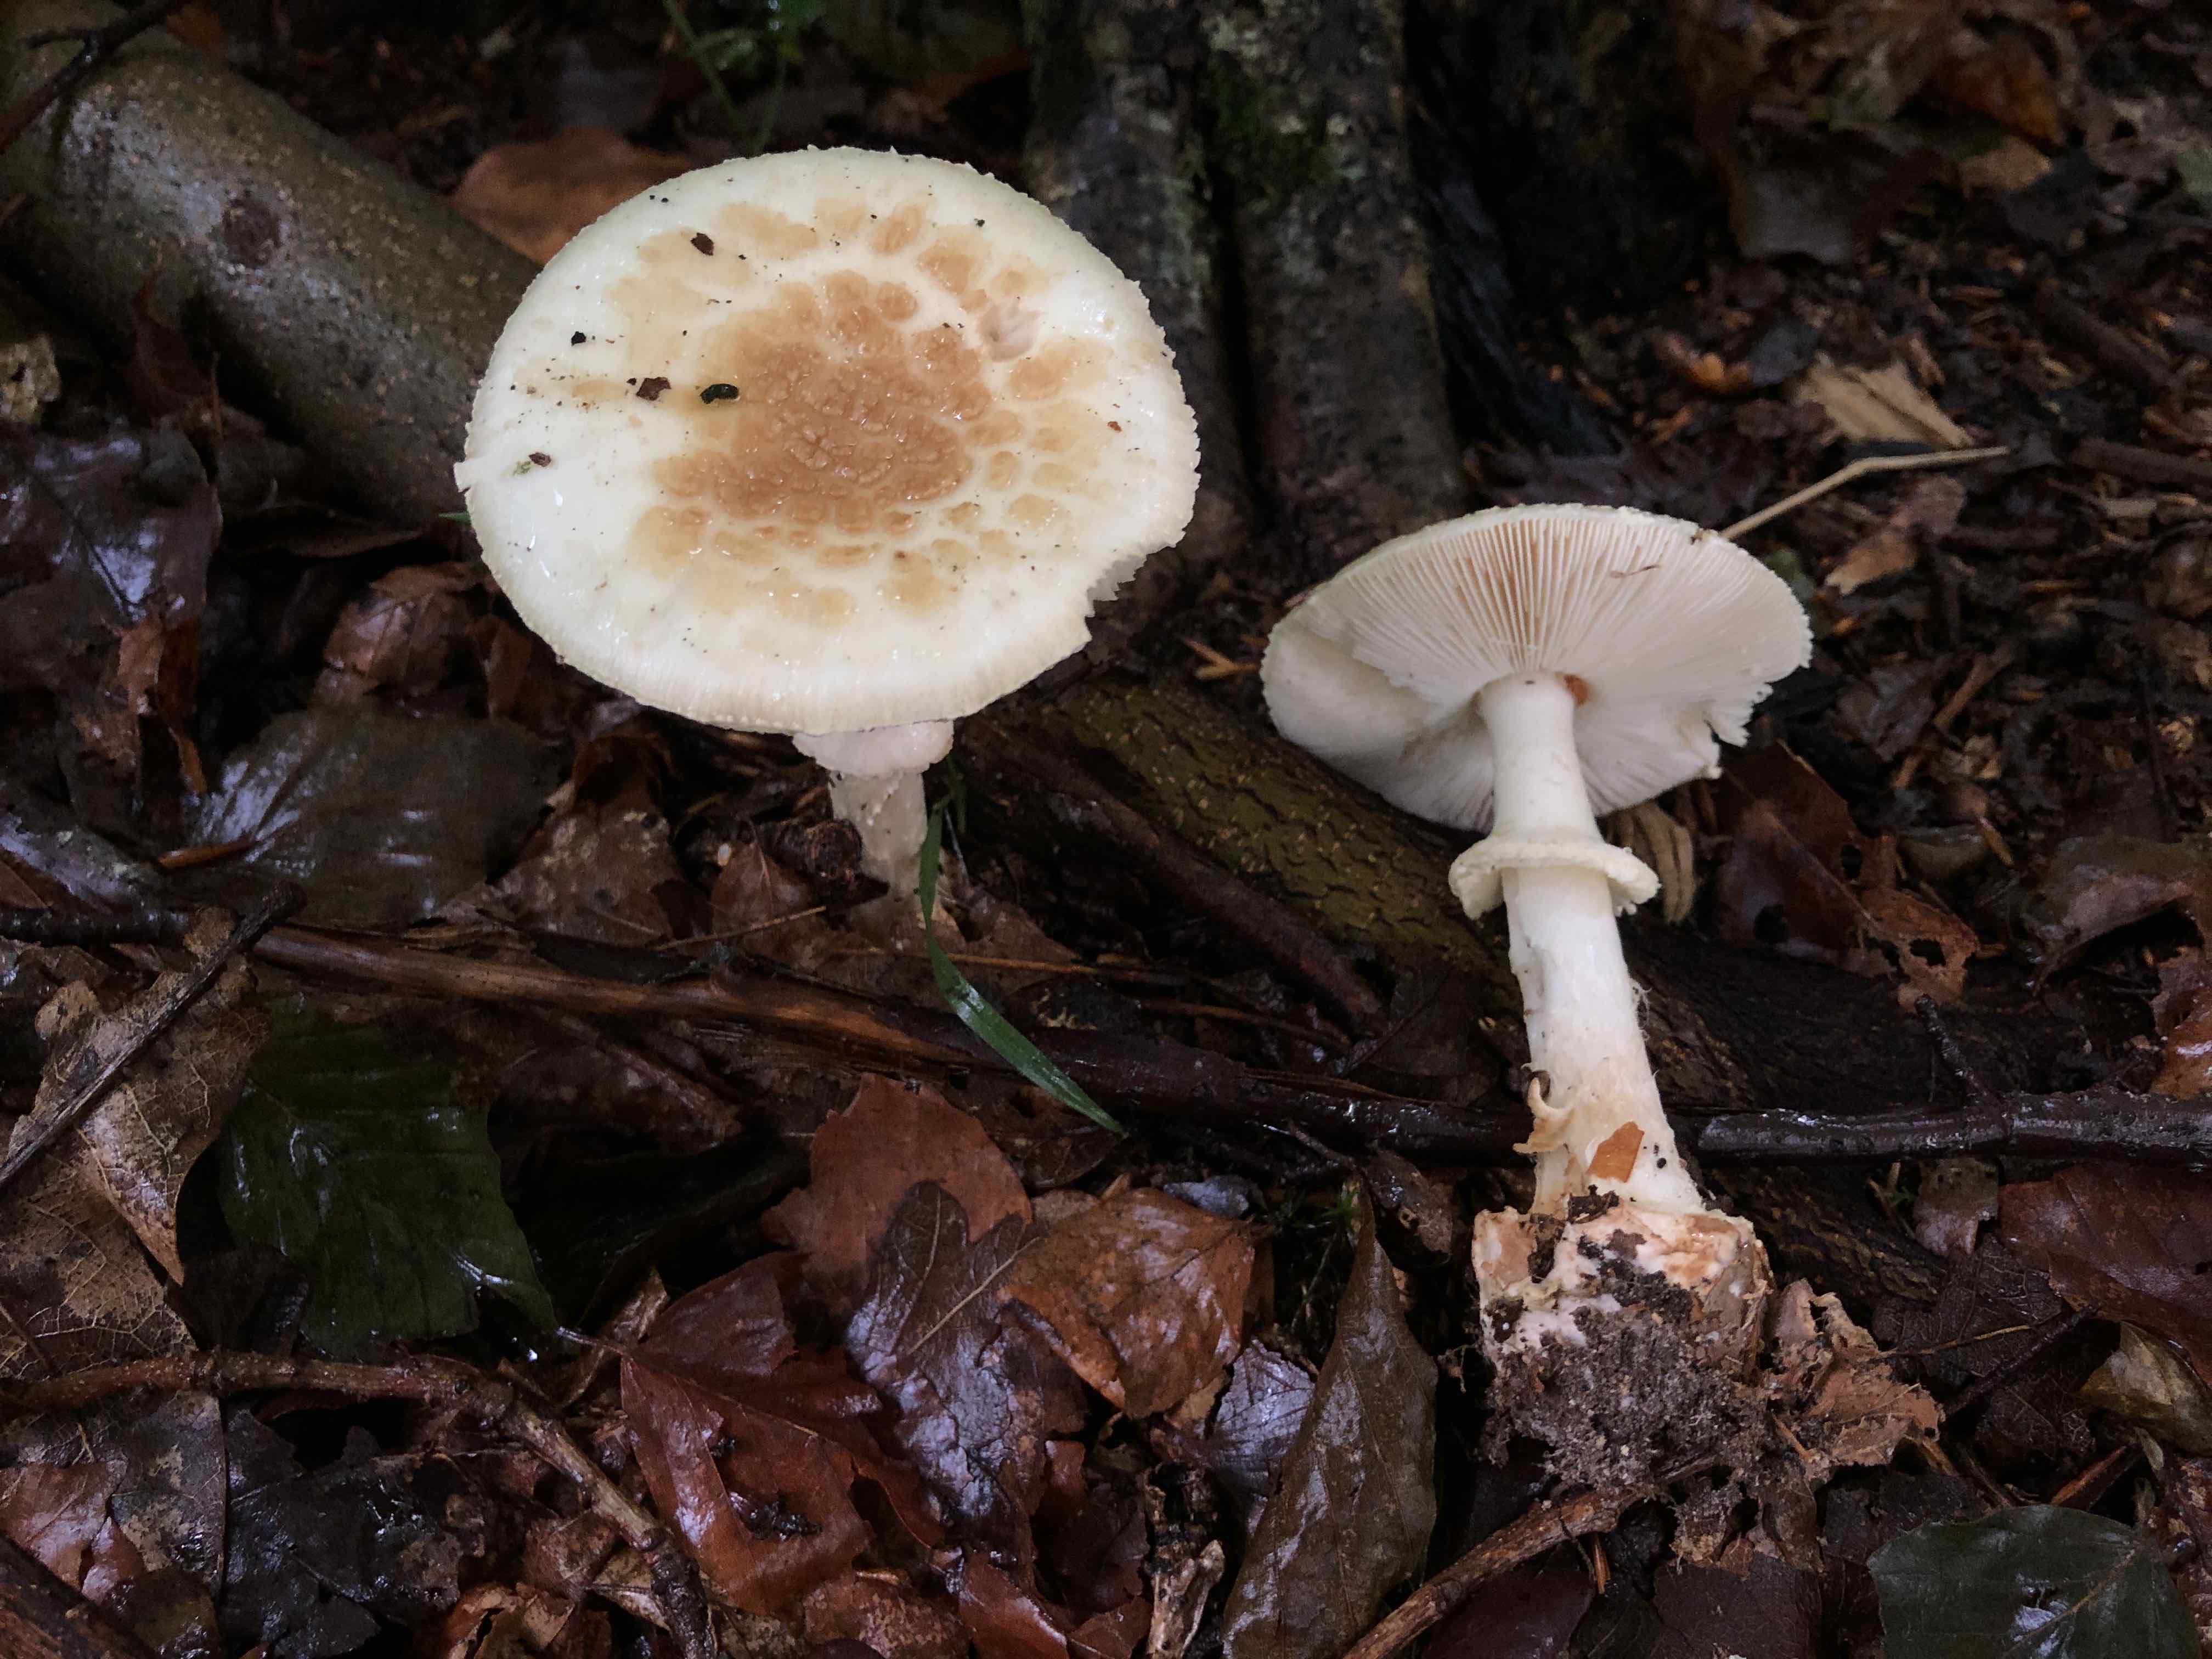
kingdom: Fungi
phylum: Basidiomycota
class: Agaricomycetes
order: Agaricales
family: Amanitaceae
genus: Amanita
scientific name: Amanita citrina
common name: kugleknoldet fluesvamp
